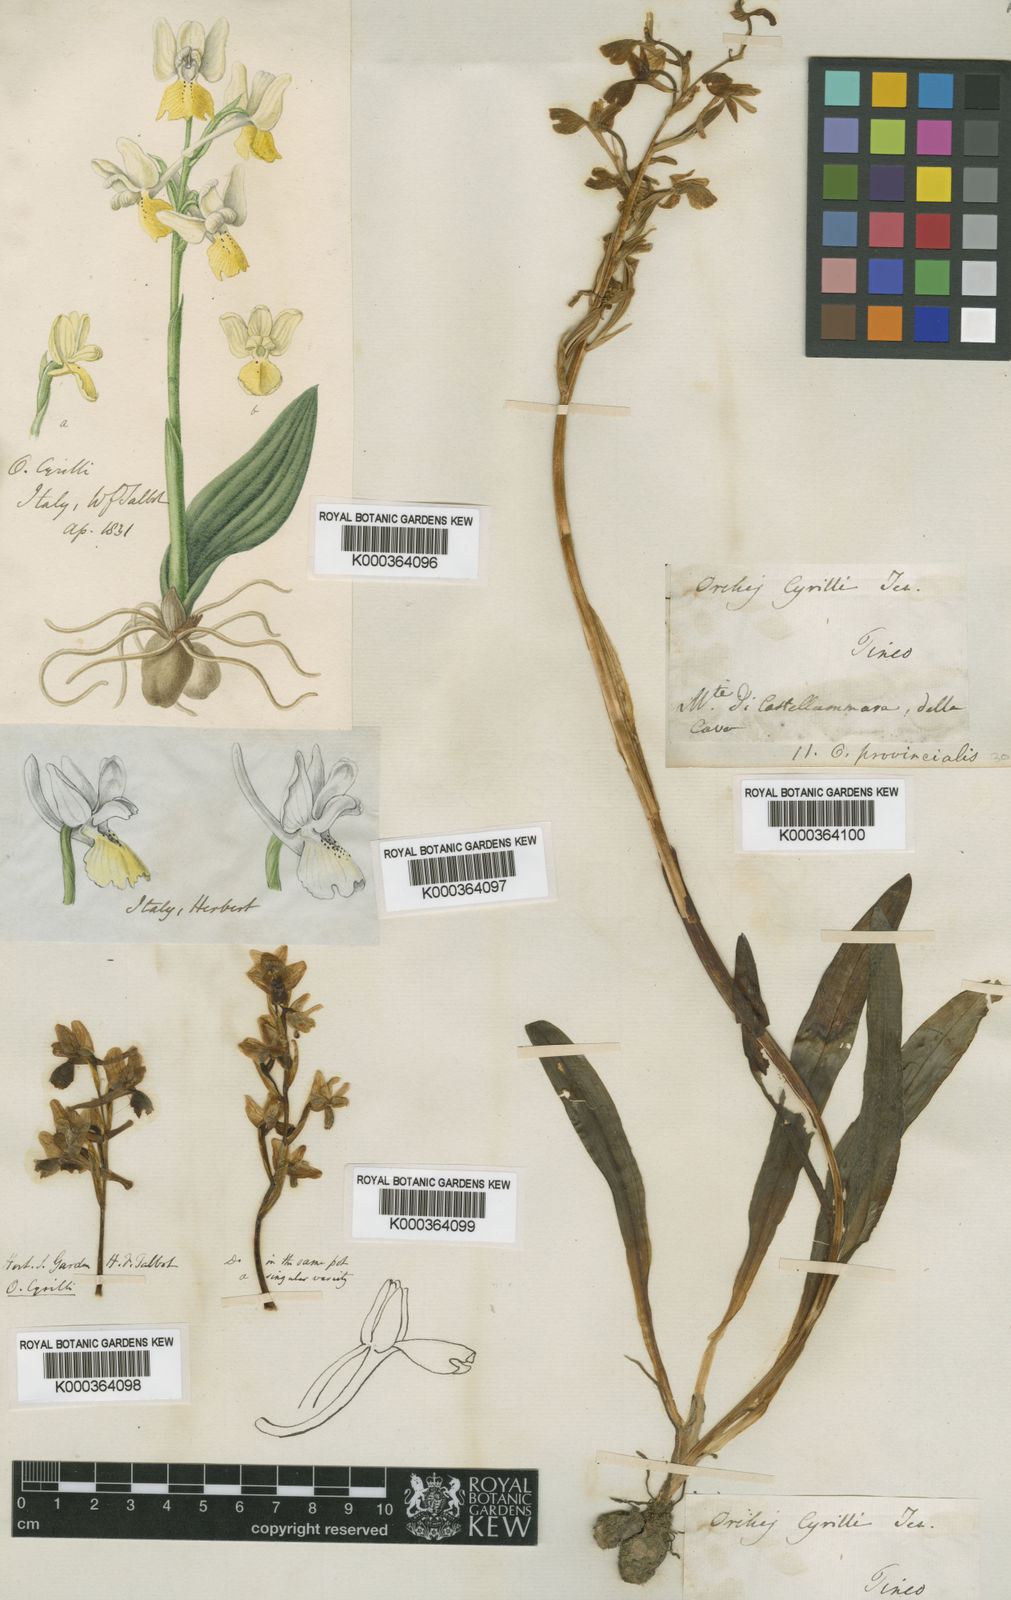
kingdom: Plantae
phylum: Tracheophyta
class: Liliopsida
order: Asparagales
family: Orchidaceae
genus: Orchis
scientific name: Orchis
